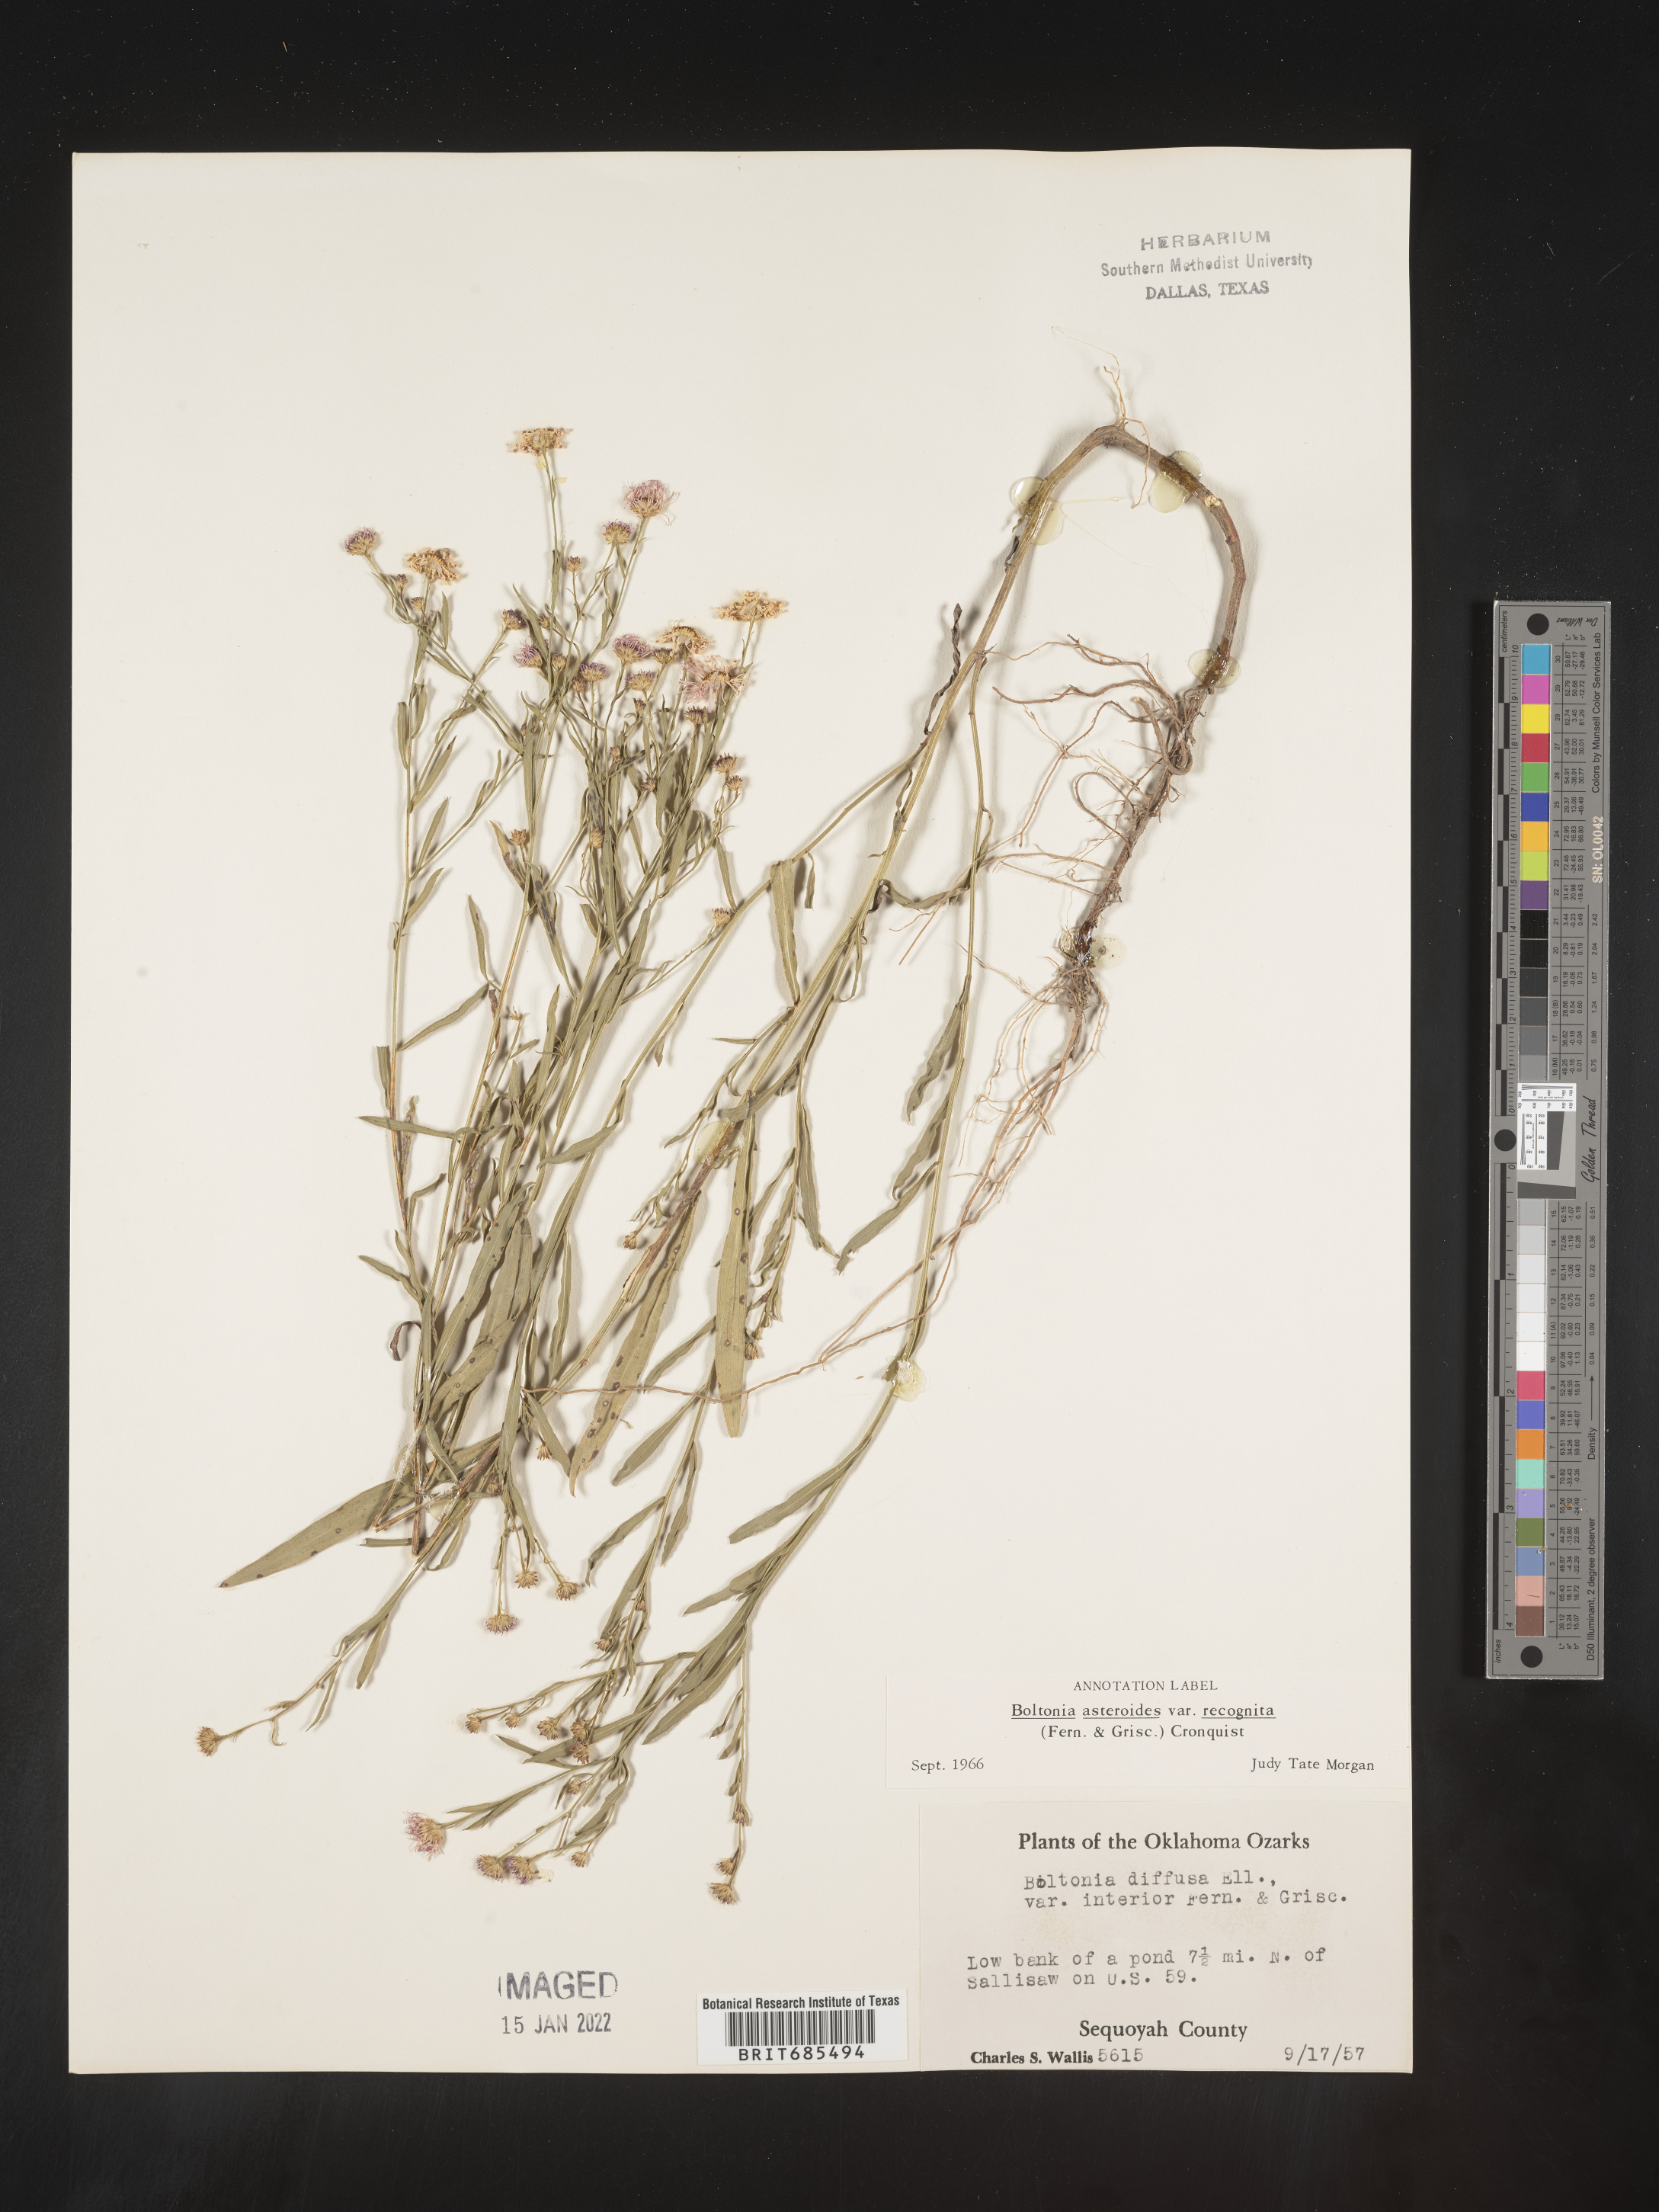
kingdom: Plantae
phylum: Tracheophyta
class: Magnoliopsida
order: Asterales
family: Asteraceae
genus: Boltonia
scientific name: Boltonia asteroides
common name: False chamomile
